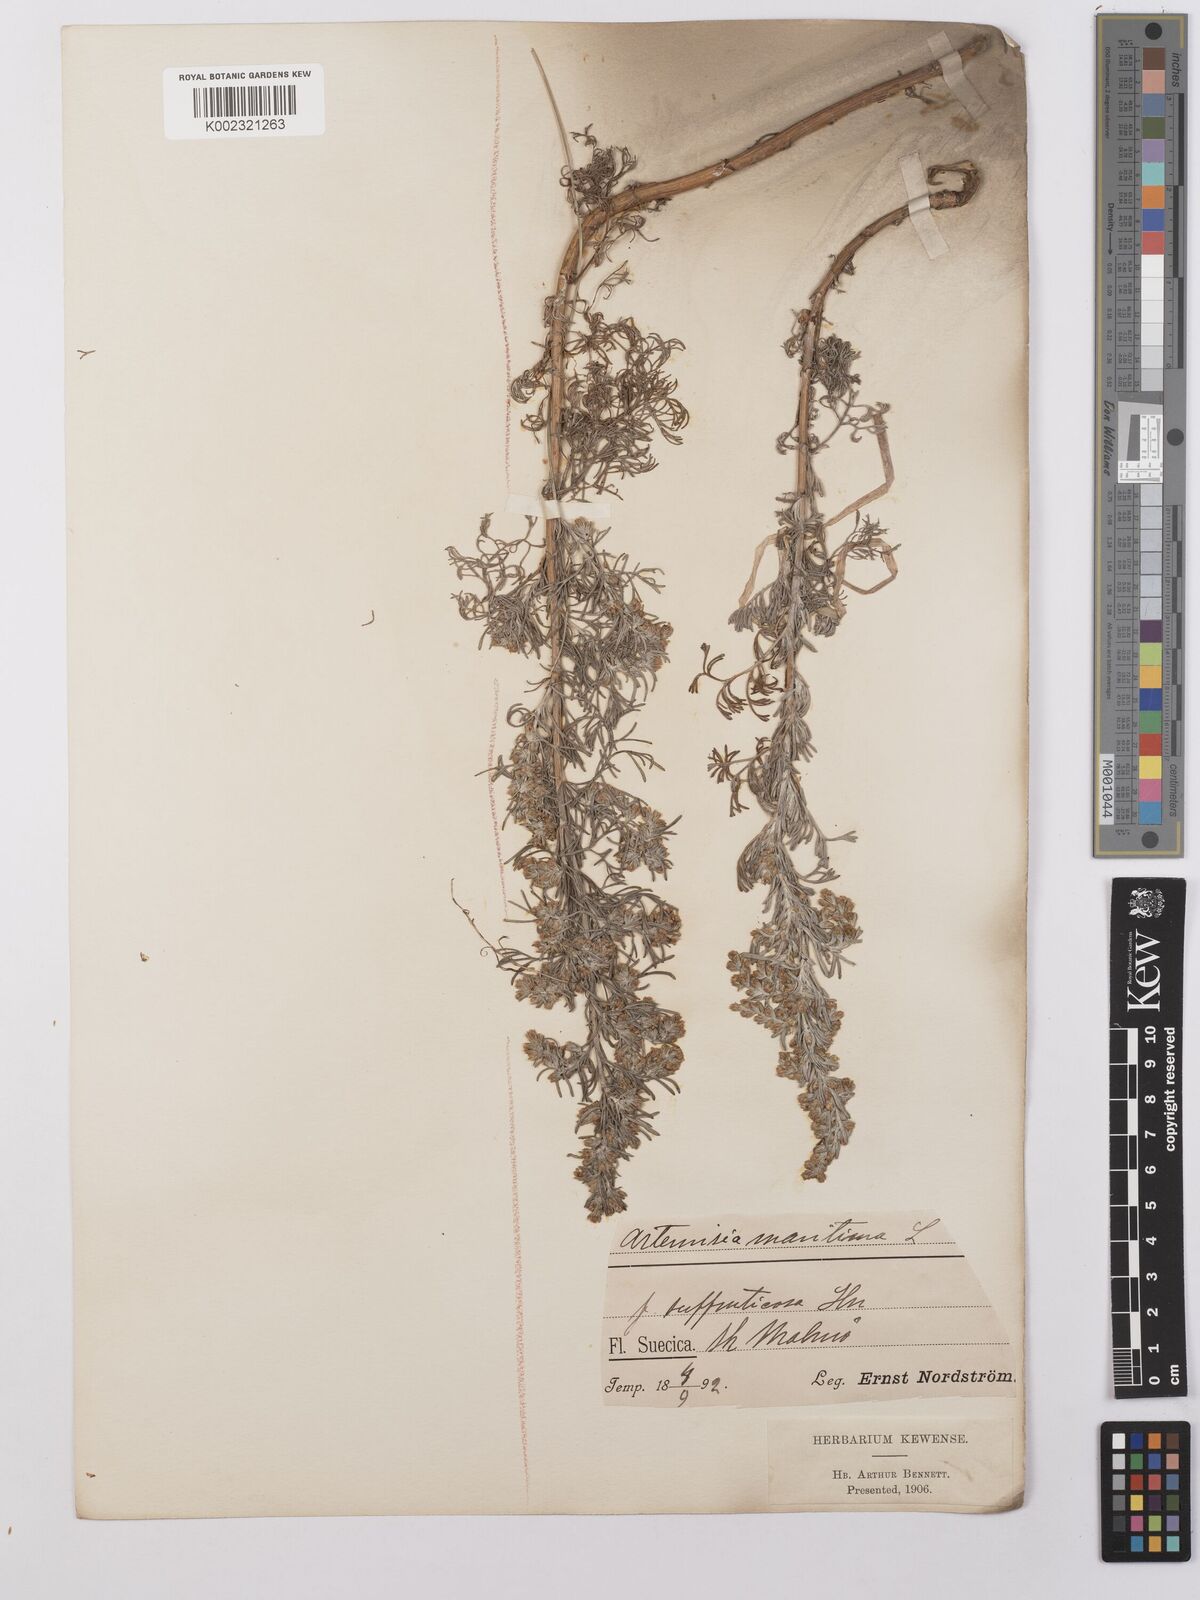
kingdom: Plantae
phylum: Tracheophyta
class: Magnoliopsida
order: Asterales
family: Asteraceae
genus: Artemisia
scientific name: Artemisia maritima
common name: Wormseed
